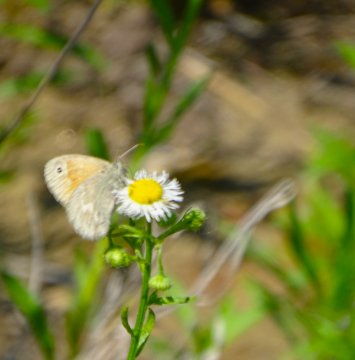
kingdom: Animalia
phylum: Arthropoda
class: Insecta
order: Lepidoptera
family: Nymphalidae
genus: Coenonympha
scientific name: Coenonympha california
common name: California Ringlet
